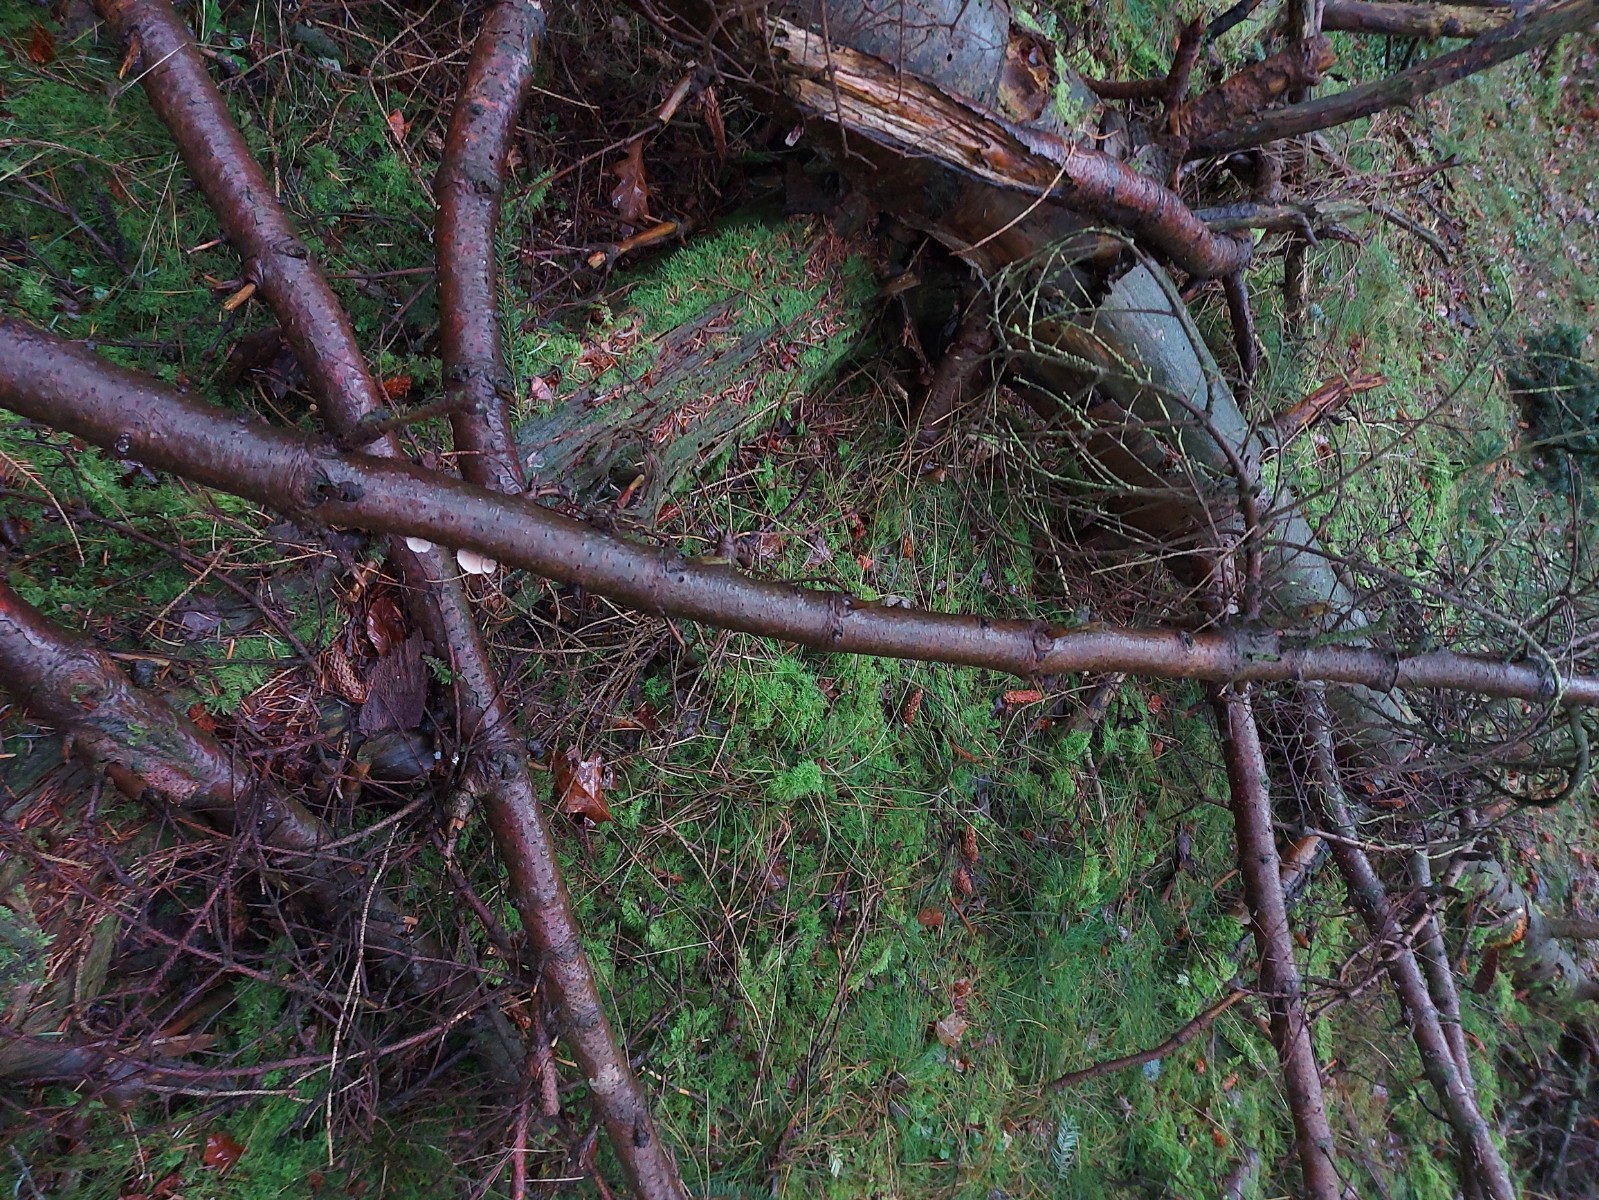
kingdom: Fungi
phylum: Basidiomycota
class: Agaricomycetes
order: Agaricales
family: Mycenaceae
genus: Panellus
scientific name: Panellus mitis
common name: mild epaulethat
